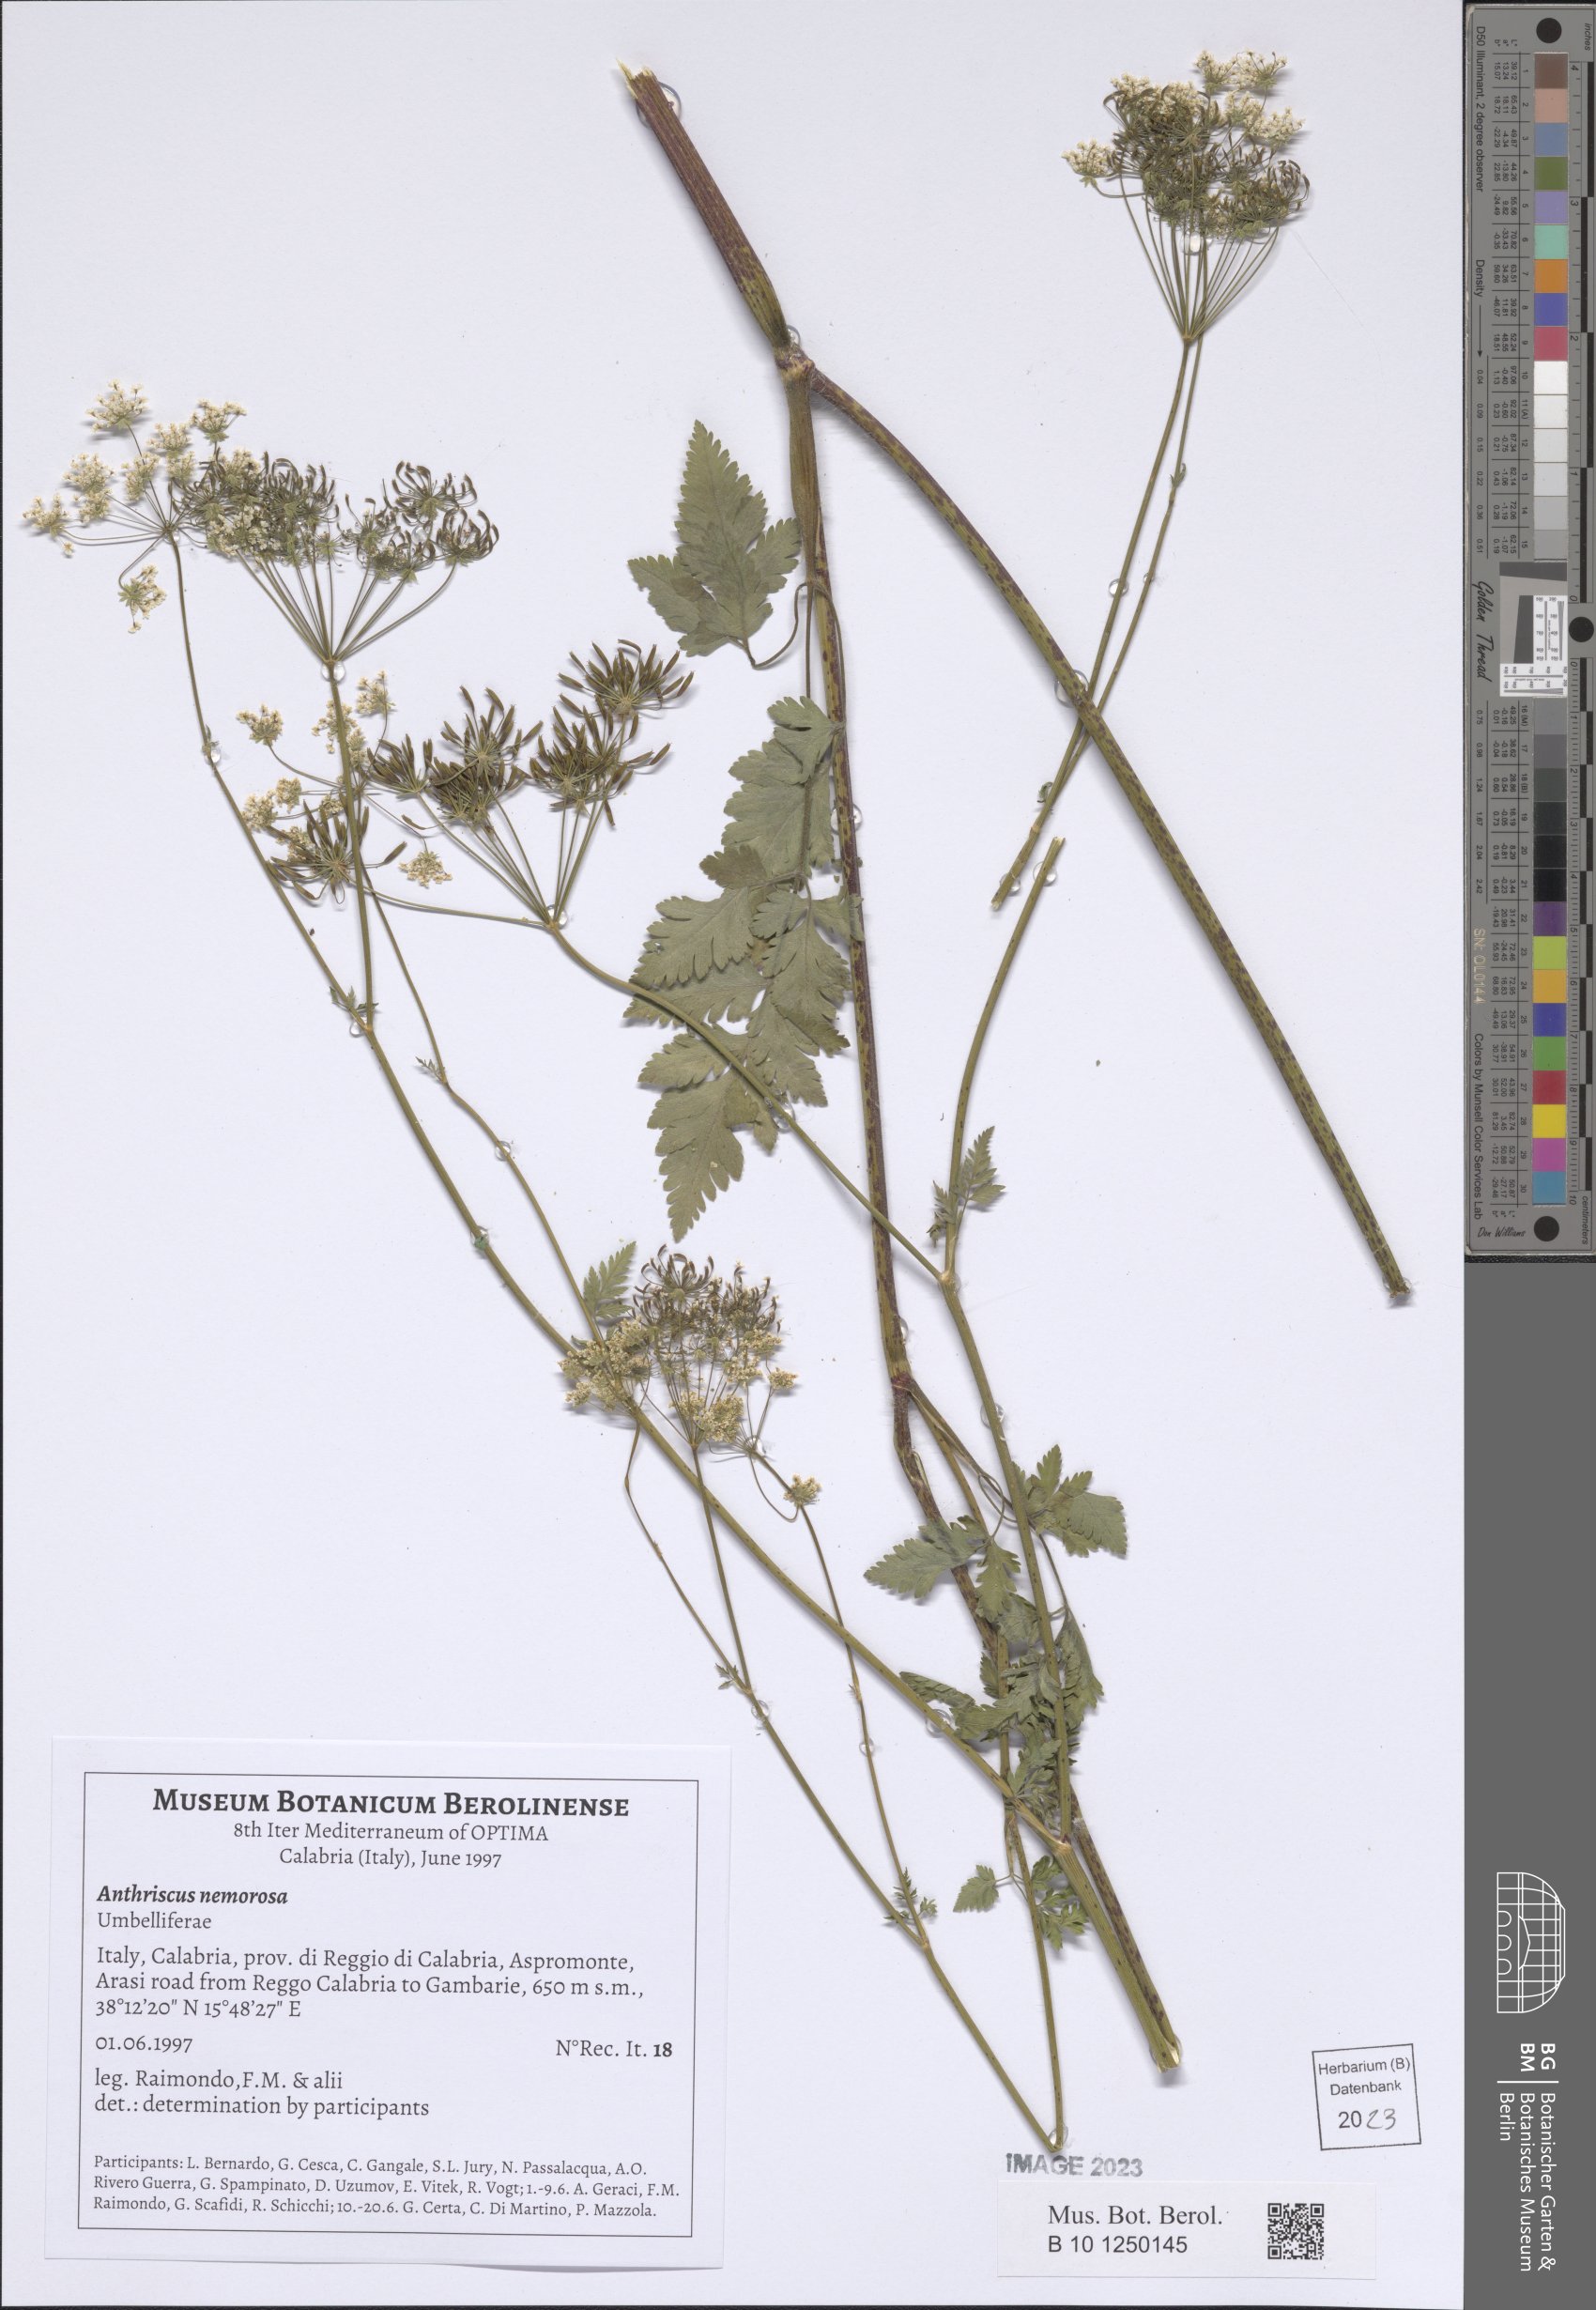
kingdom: Plantae
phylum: Tracheophyta
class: Magnoliopsida
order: Apiales
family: Apiaceae
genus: Anthriscus
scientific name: Anthriscus sylvestris
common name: Cow parsley
